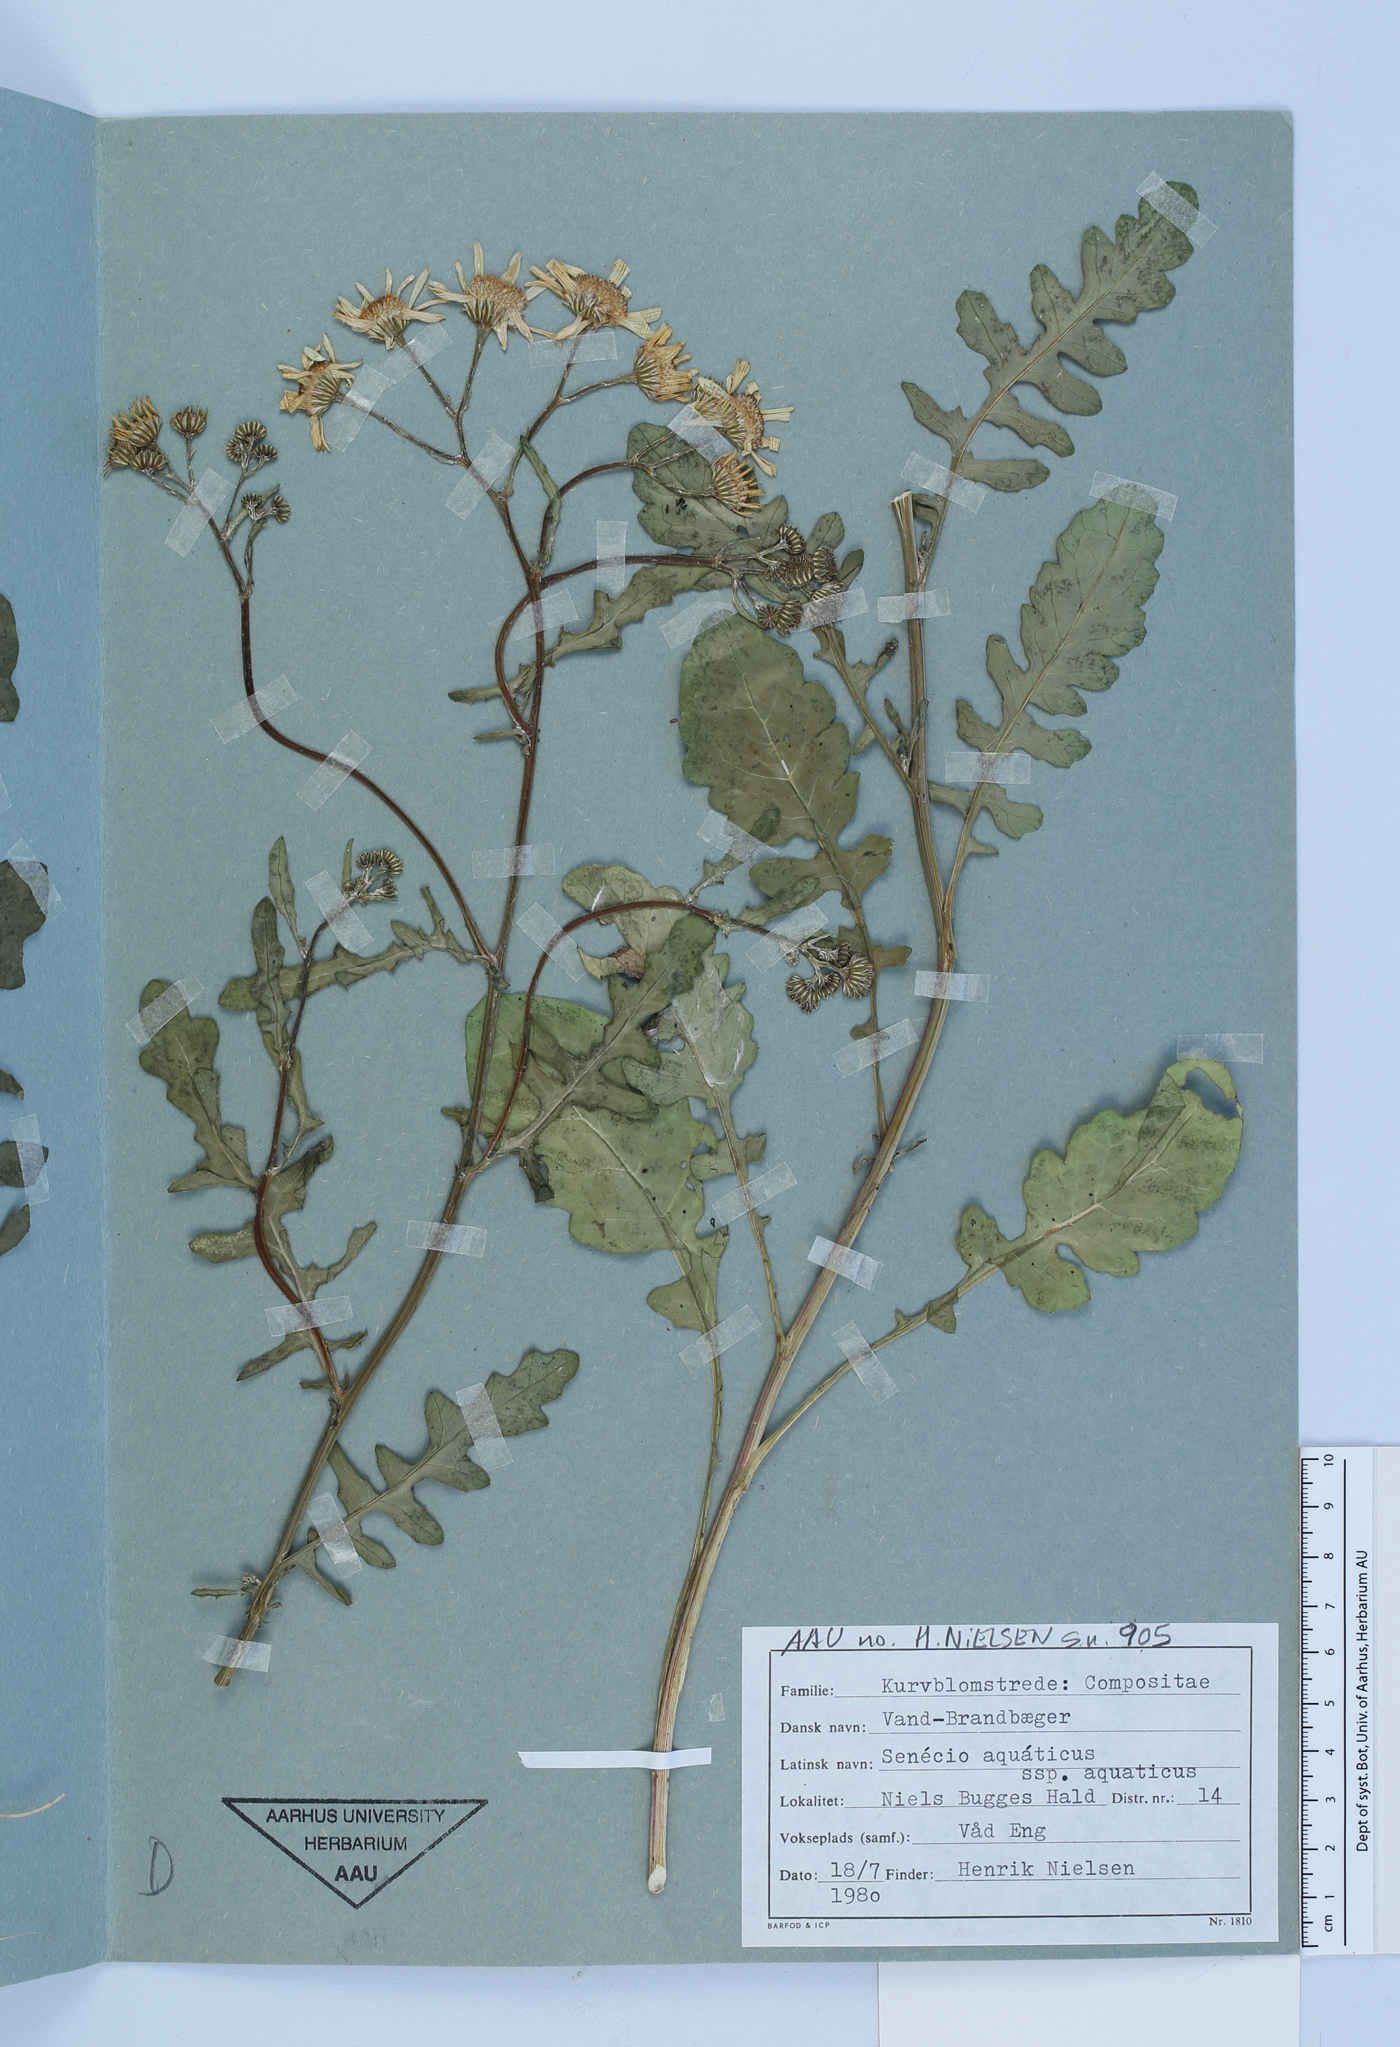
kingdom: Plantae
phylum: Tracheophyta
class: Magnoliopsida
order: Asterales
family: Asteraceae
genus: Jacobaea
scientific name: Jacobaea aquatica
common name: Water ragwort
